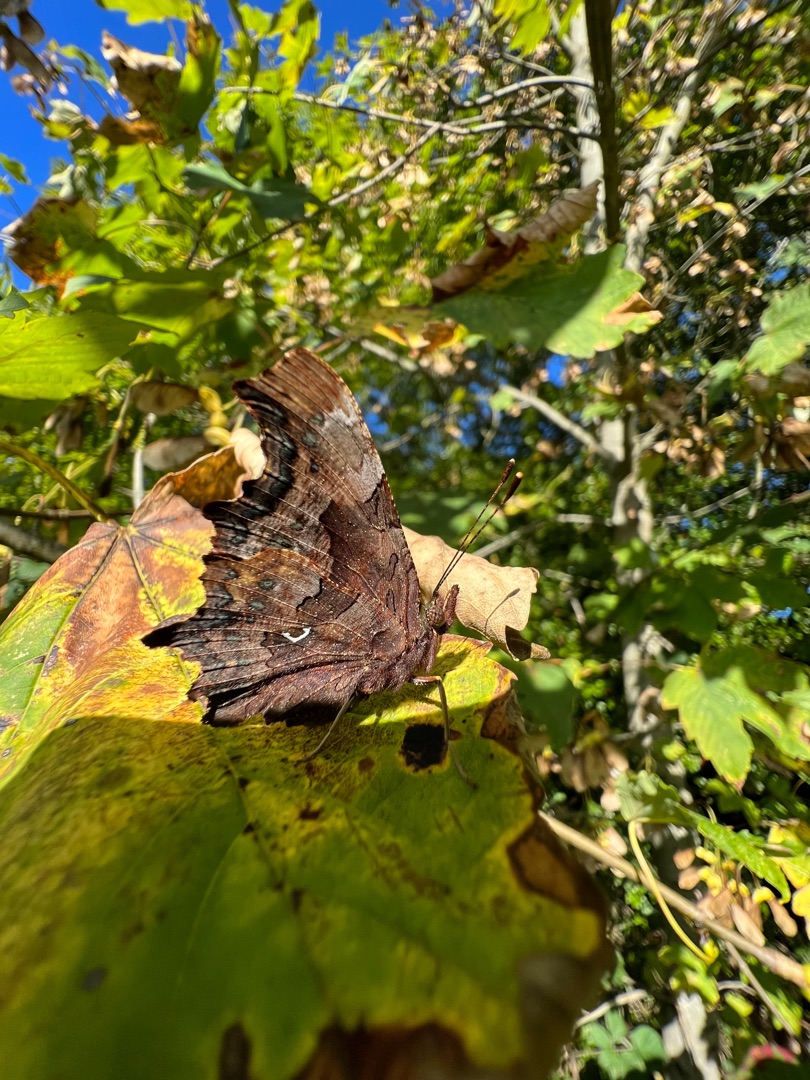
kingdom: Animalia
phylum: Arthropoda
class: Insecta
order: Lepidoptera
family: Nymphalidae
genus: Polygonia
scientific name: Polygonia c-album
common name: Det hvide C
